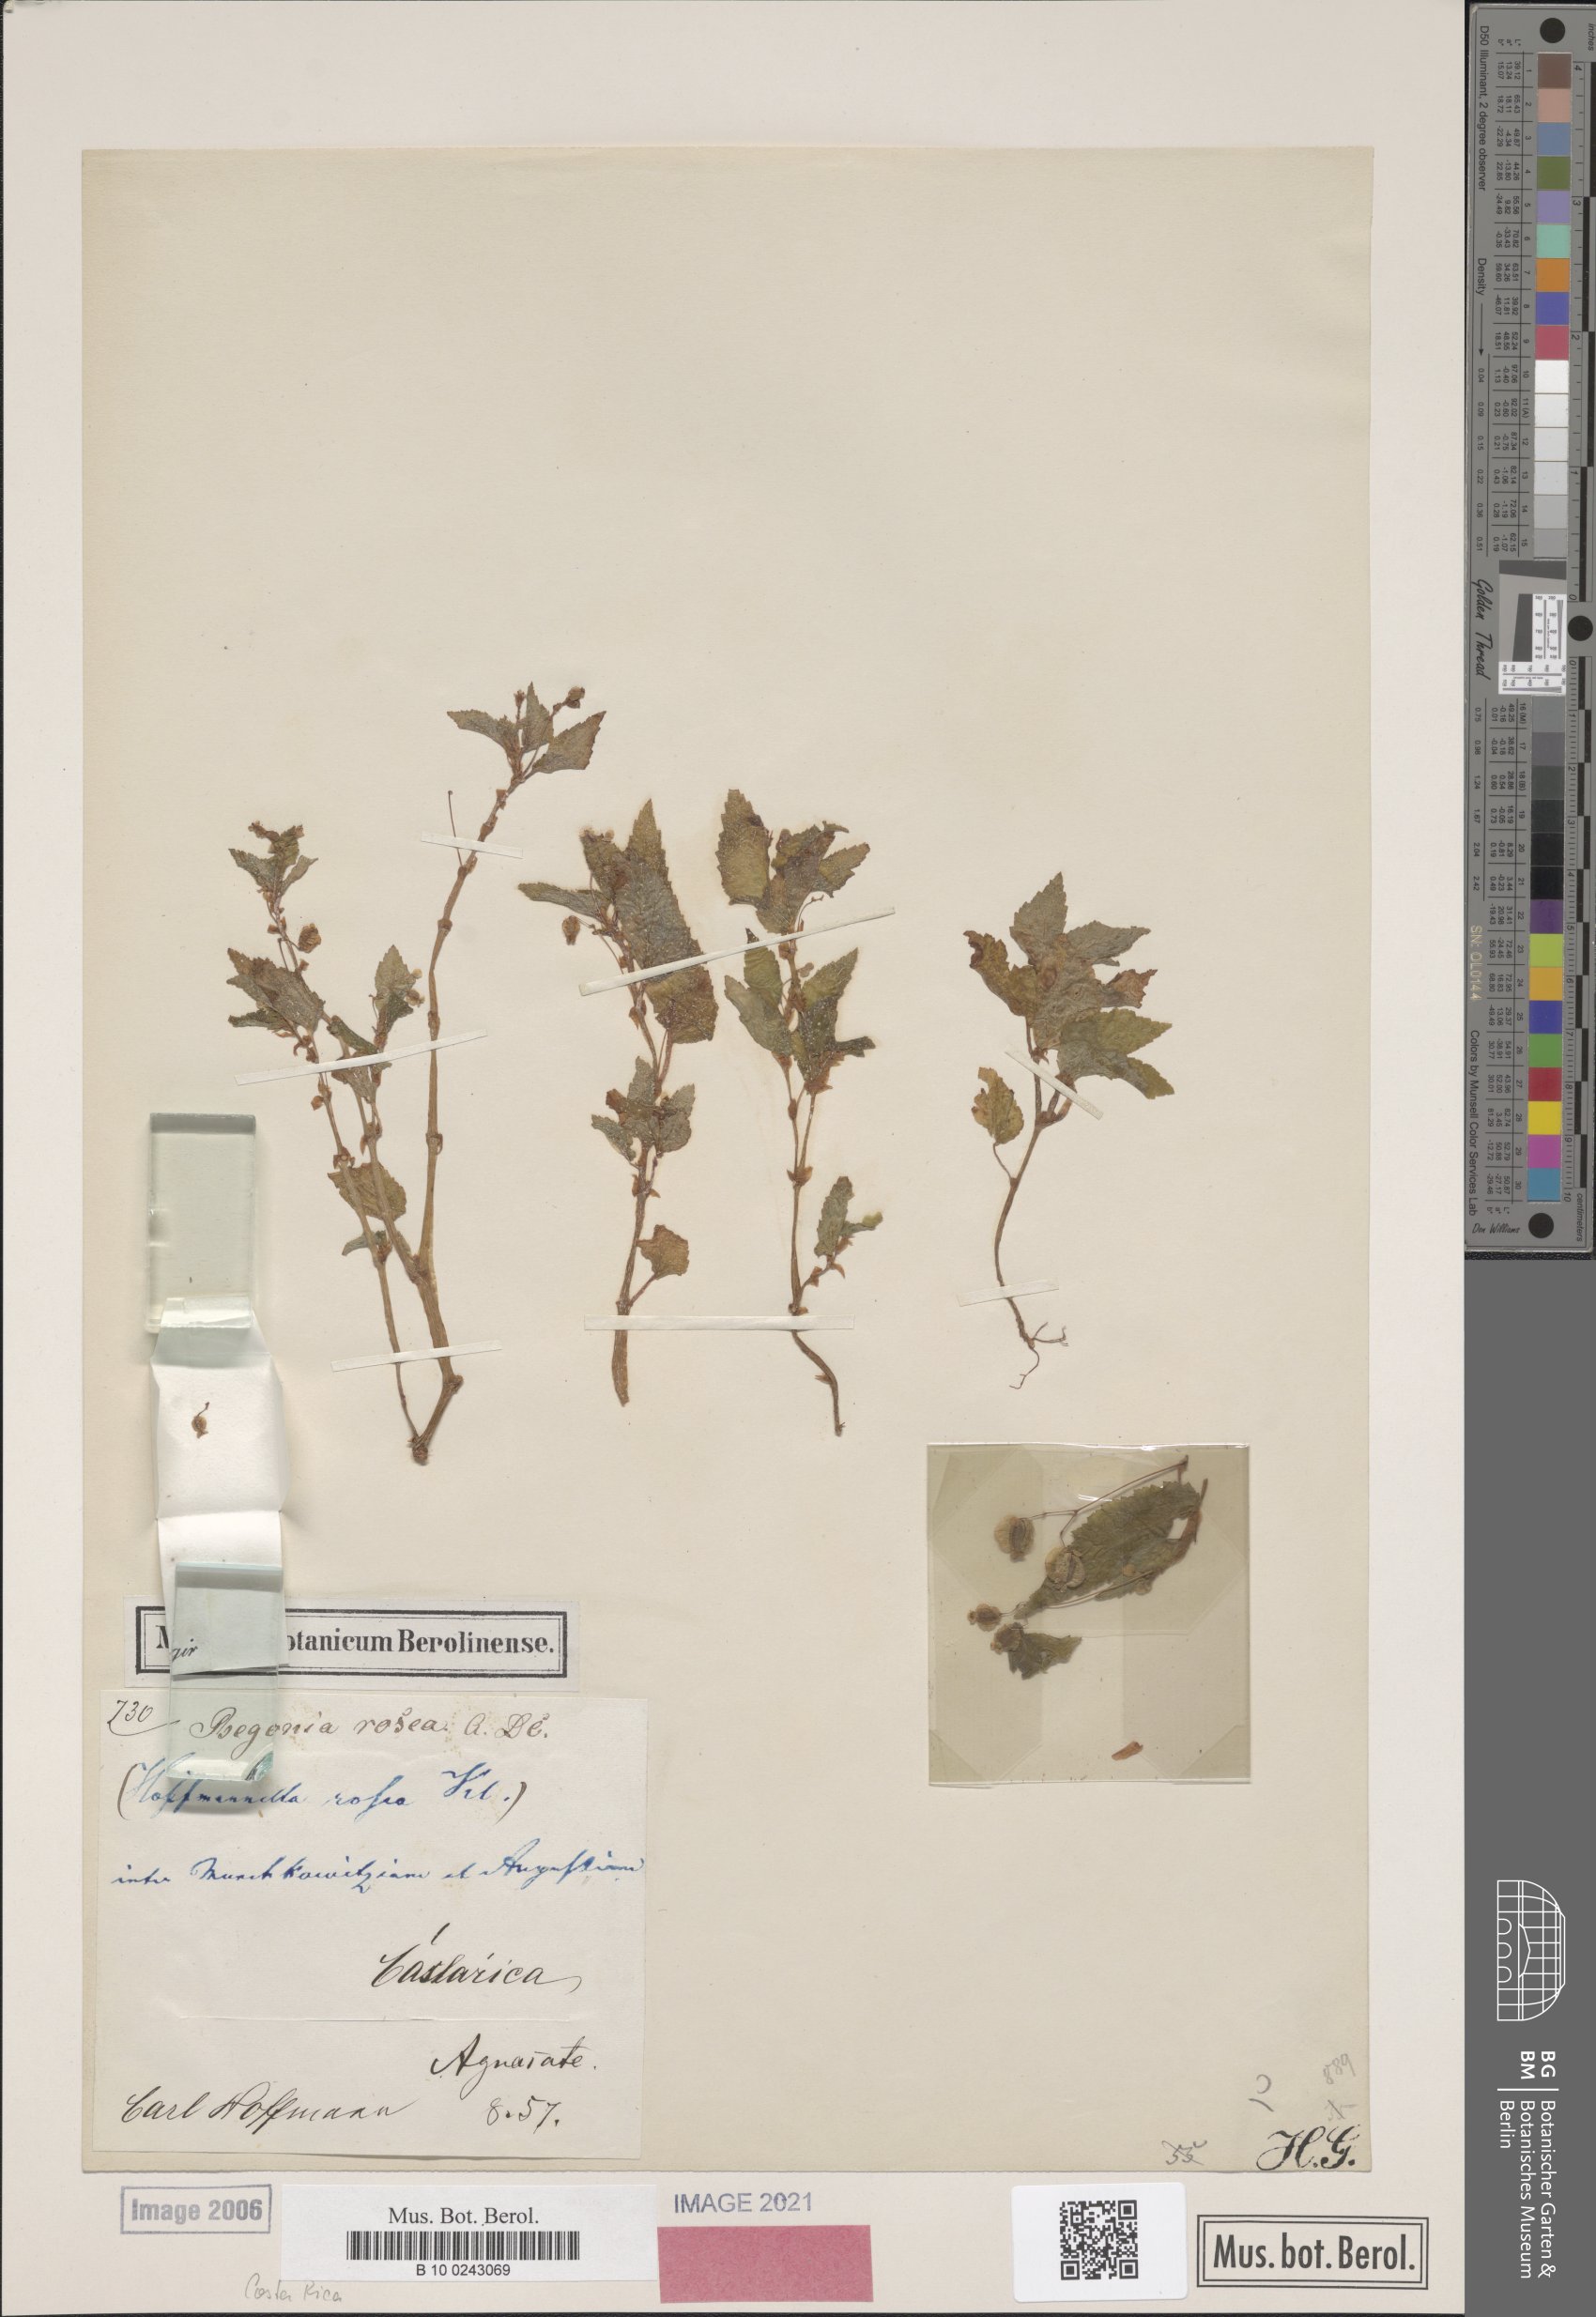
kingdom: Plantae
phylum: Tracheophyta
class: Magnoliopsida
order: Cucurbitales
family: Begoniaceae
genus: Begonia
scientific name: Begonia semiovata
